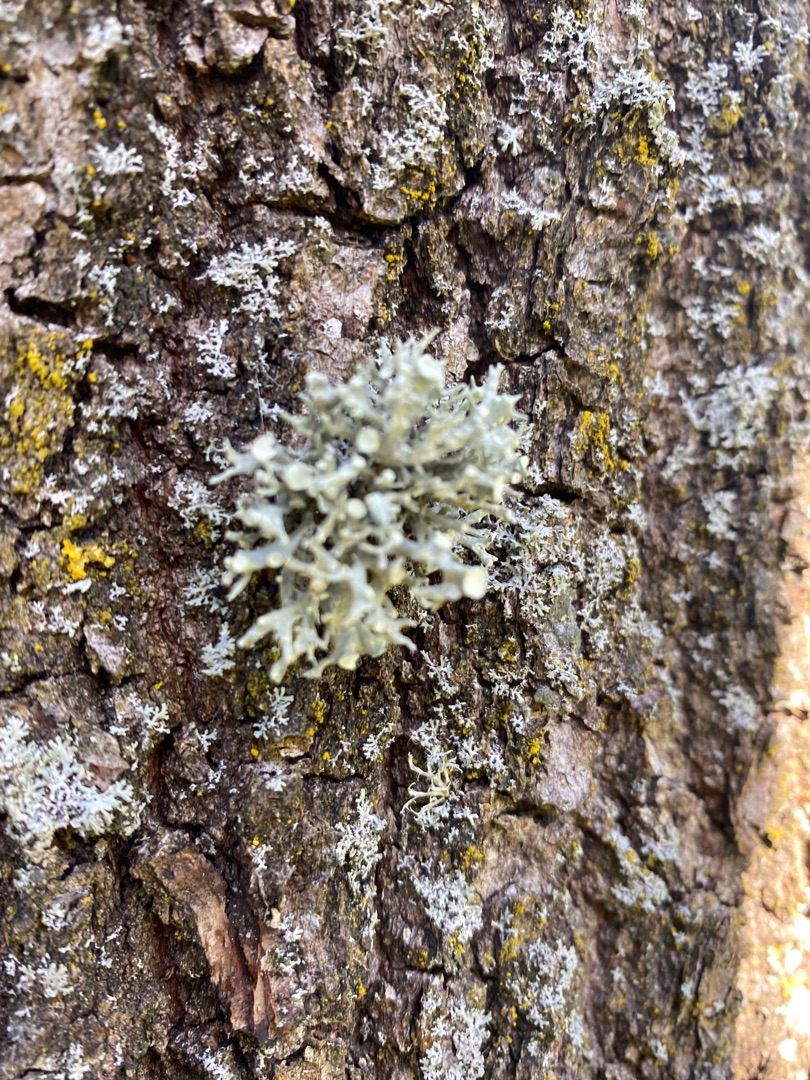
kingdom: Fungi
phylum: Ascomycota
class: Lecanoromycetes
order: Lecanorales
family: Ramalinaceae
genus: Ramalina
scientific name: Ramalina fastigiata
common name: Tue-grenlav
